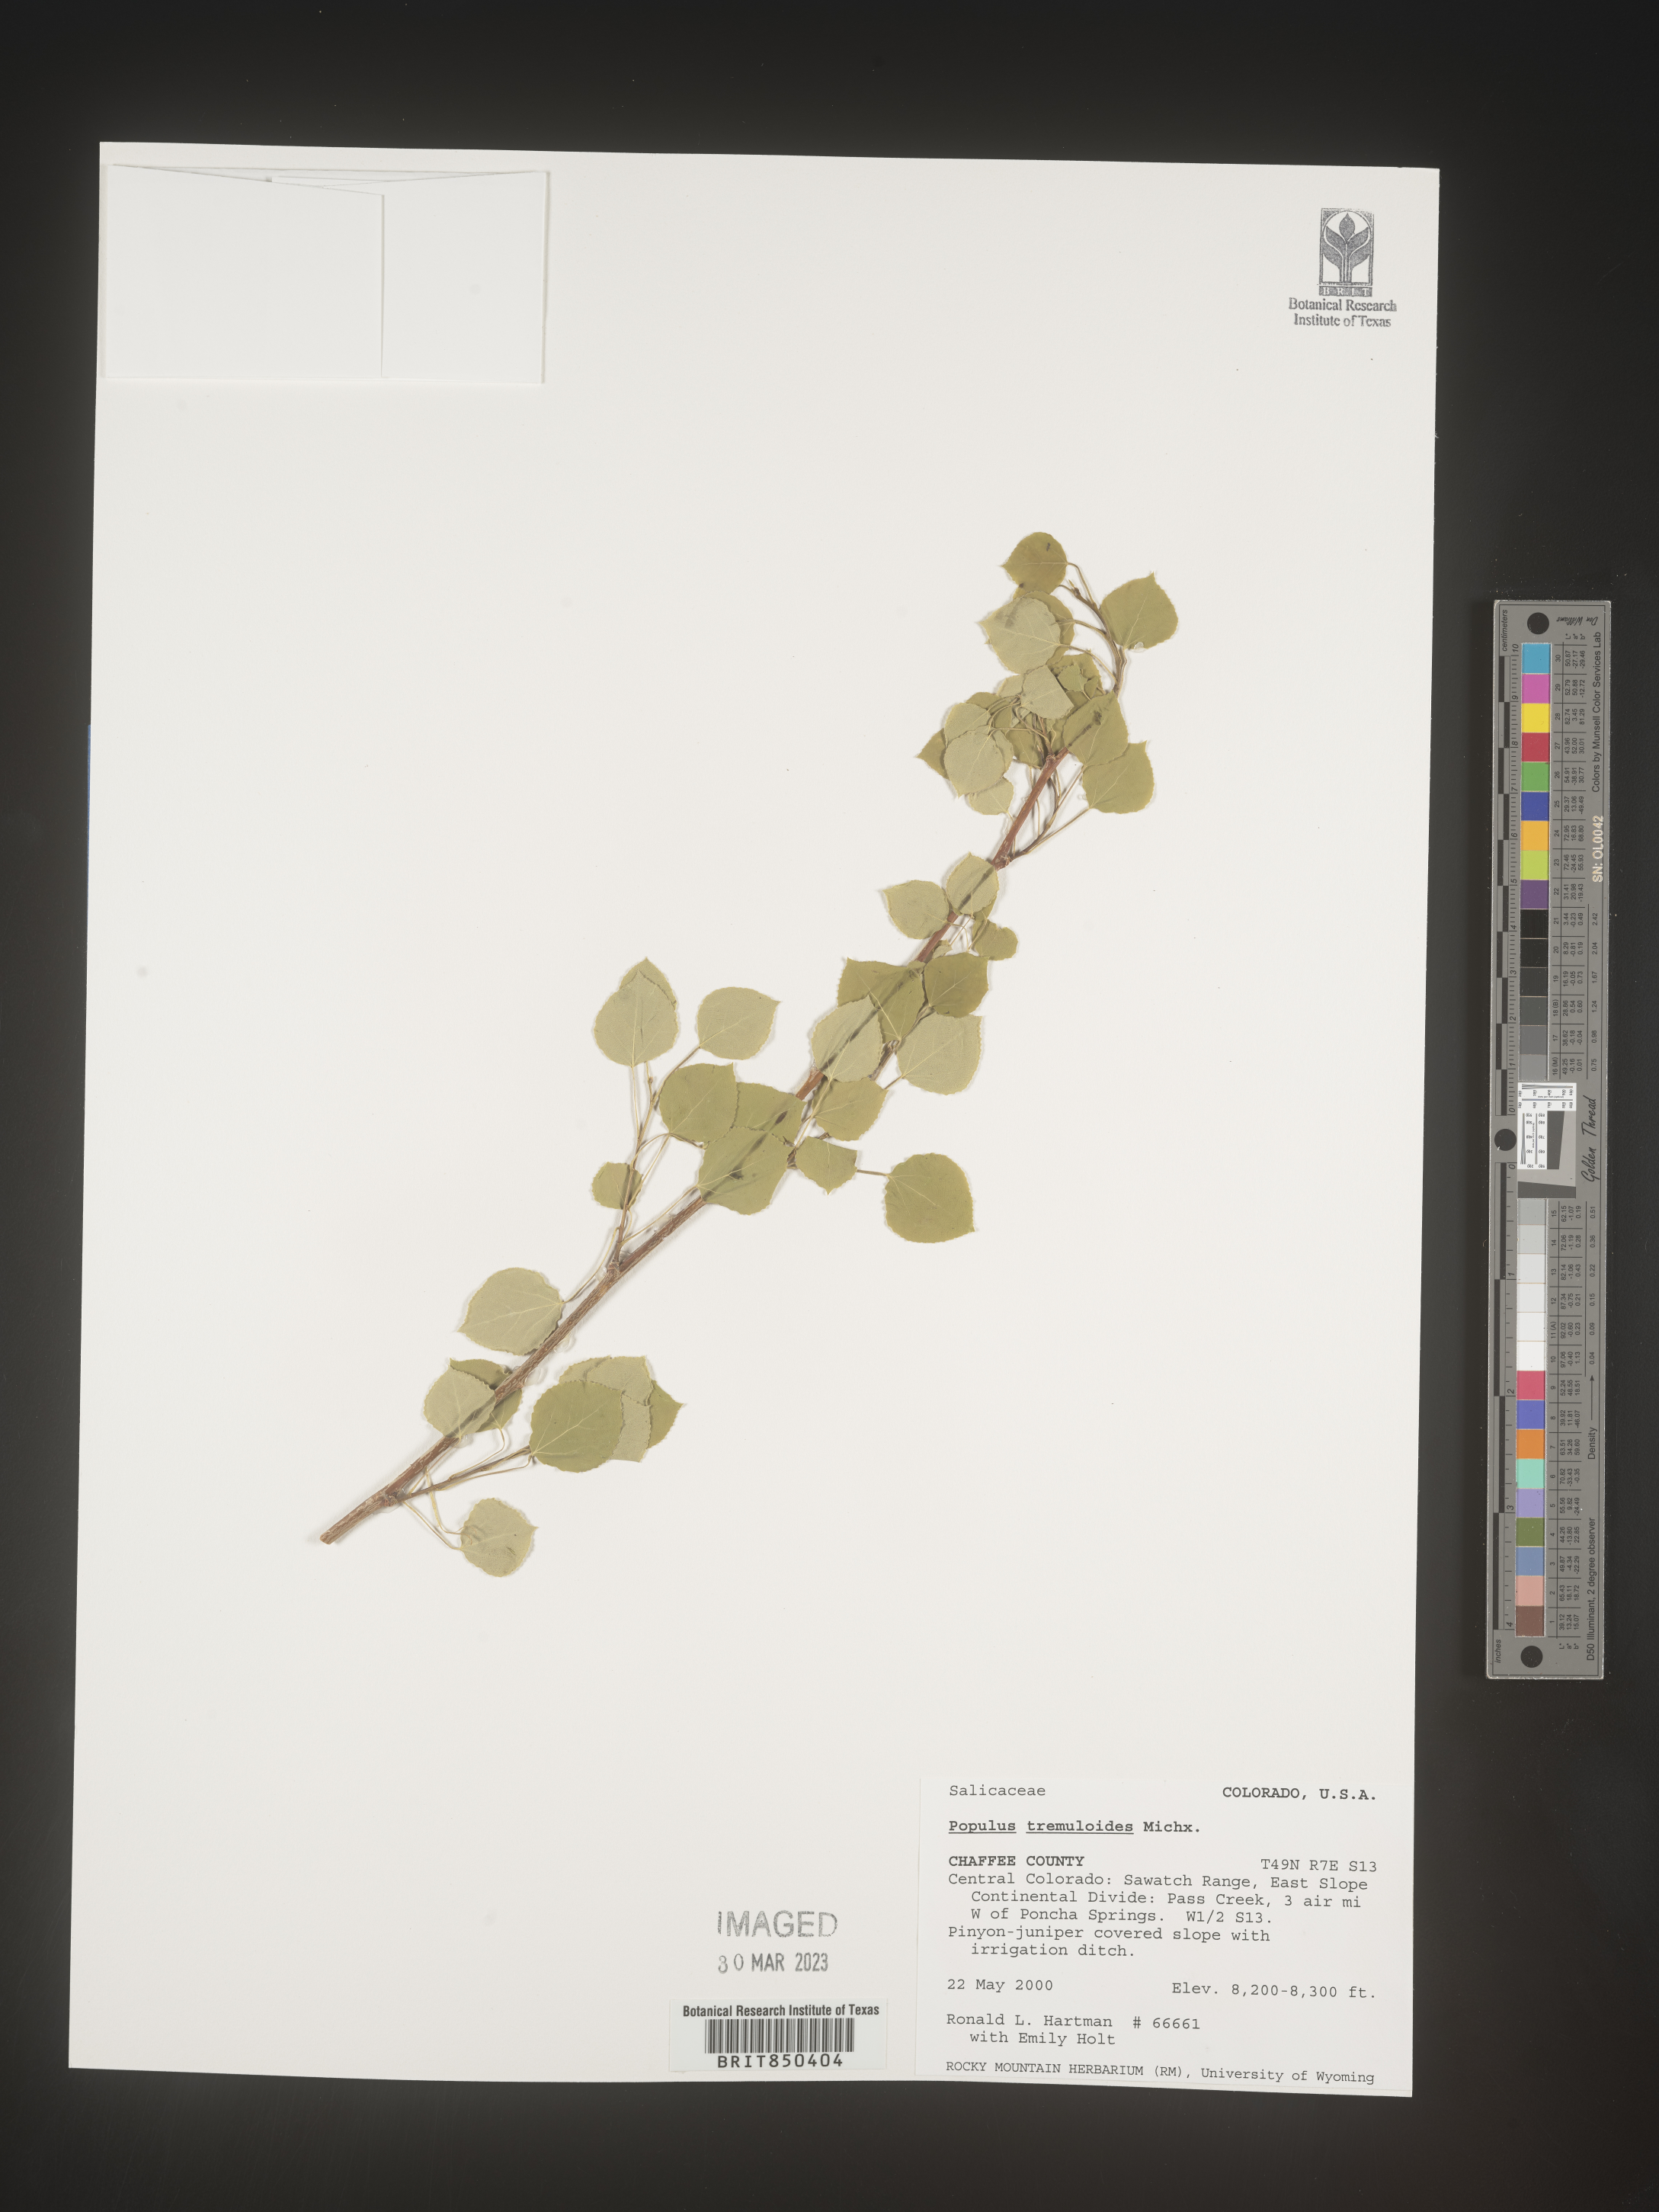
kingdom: Plantae
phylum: Tracheophyta
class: Magnoliopsida
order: Malpighiales
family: Salicaceae
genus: Populus
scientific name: Populus tremuloides
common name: Quaking aspen
